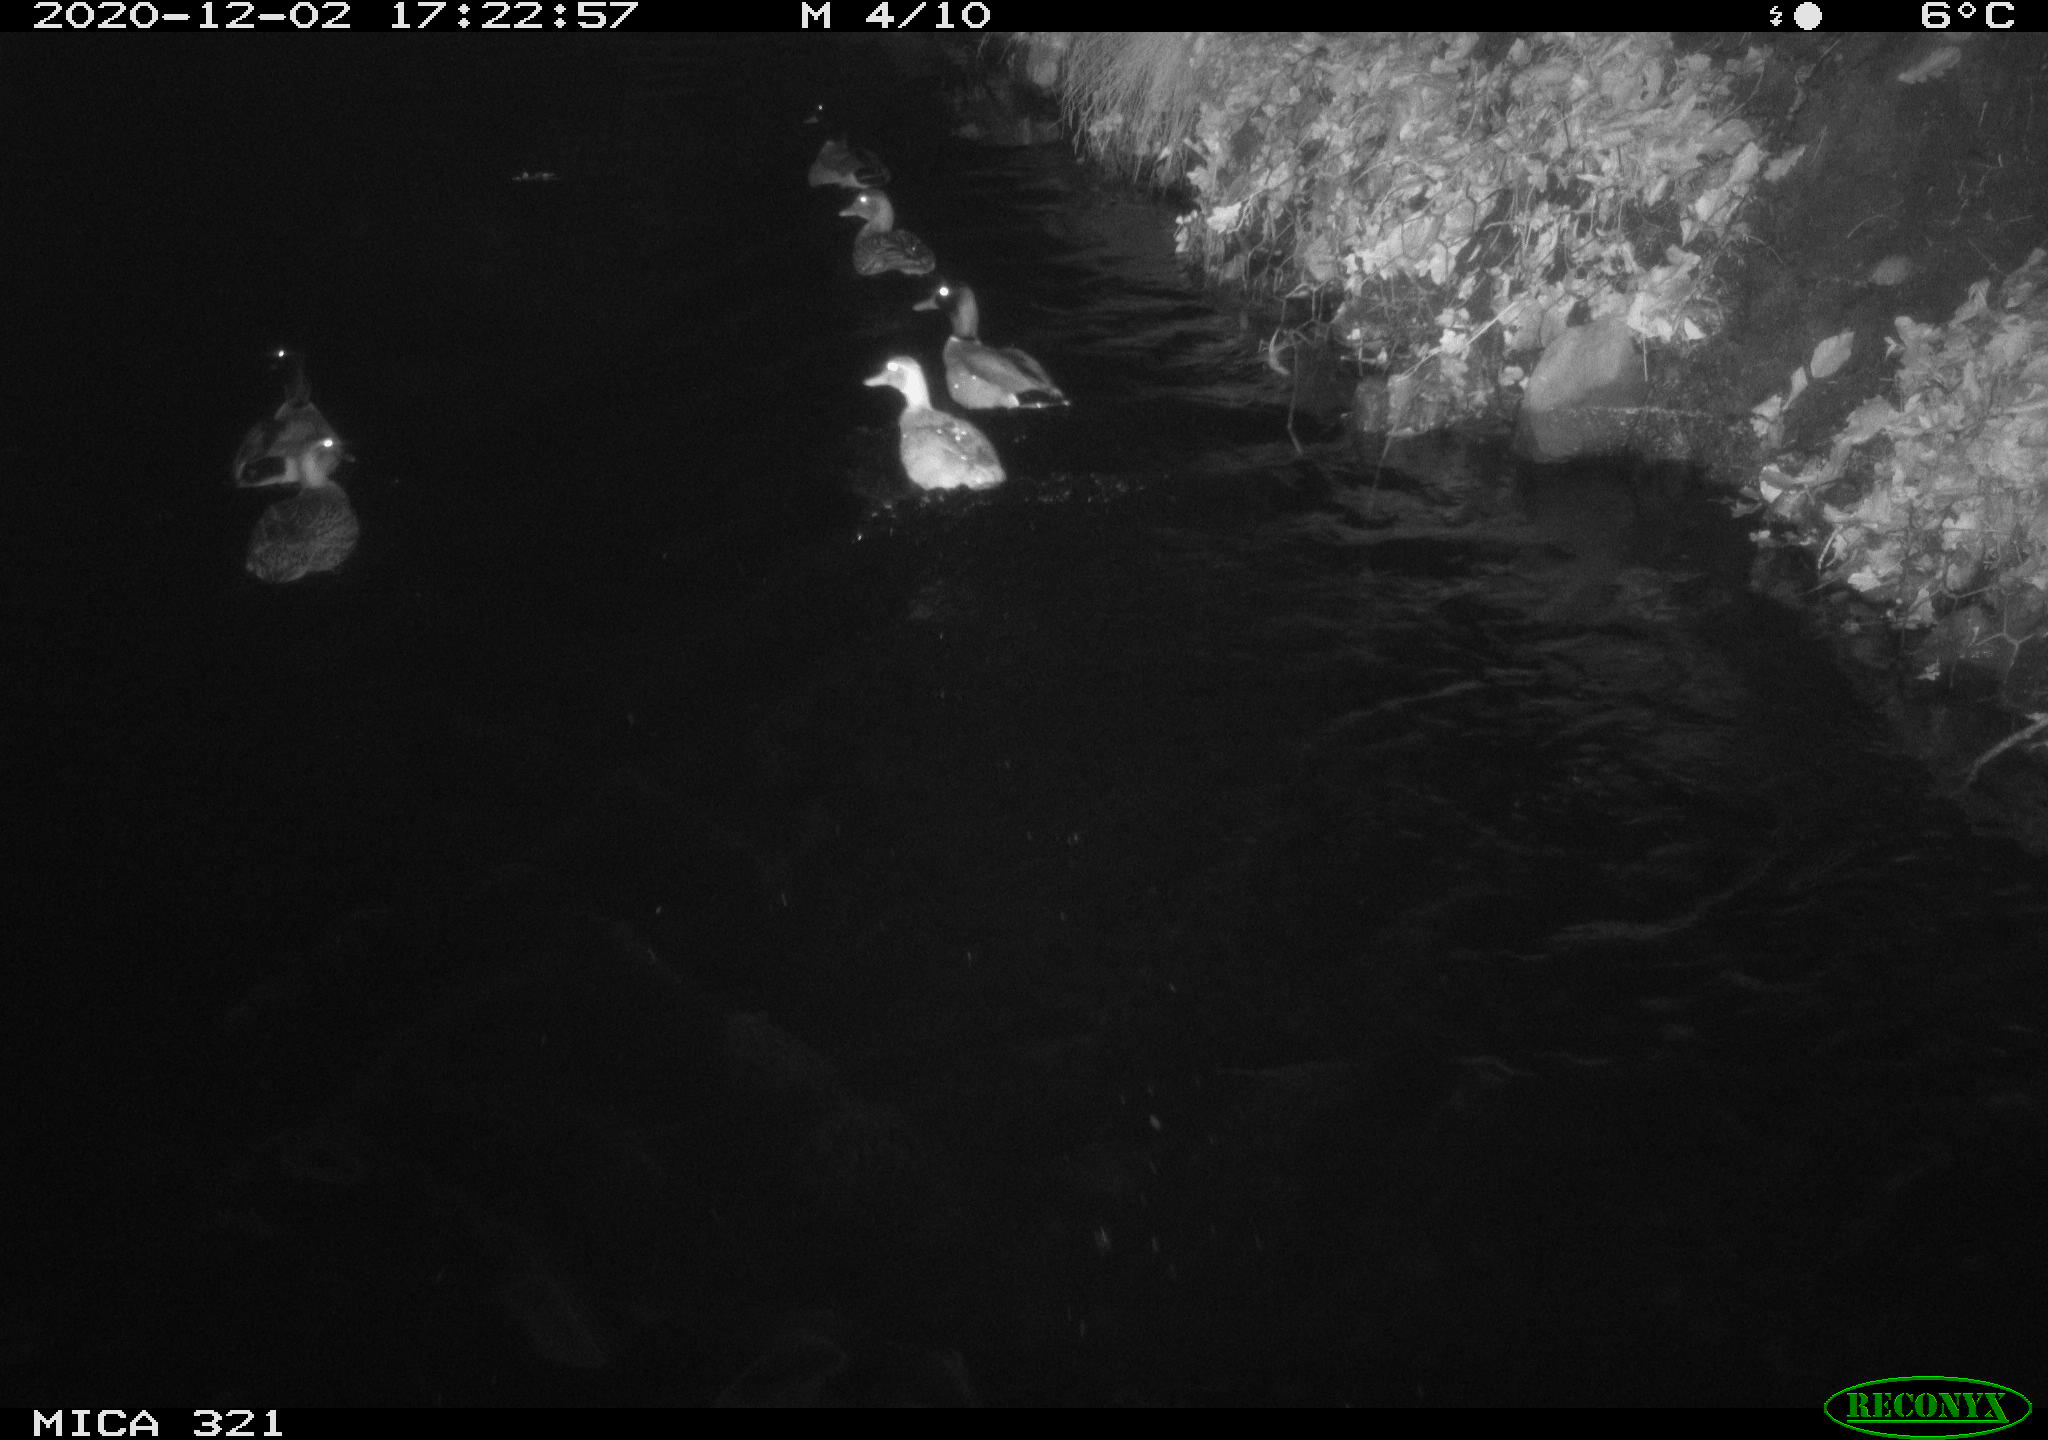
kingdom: Animalia
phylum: Chordata
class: Aves
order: Anseriformes
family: Anatidae
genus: Anas
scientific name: Anas platyrhynchos
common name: Mallard
